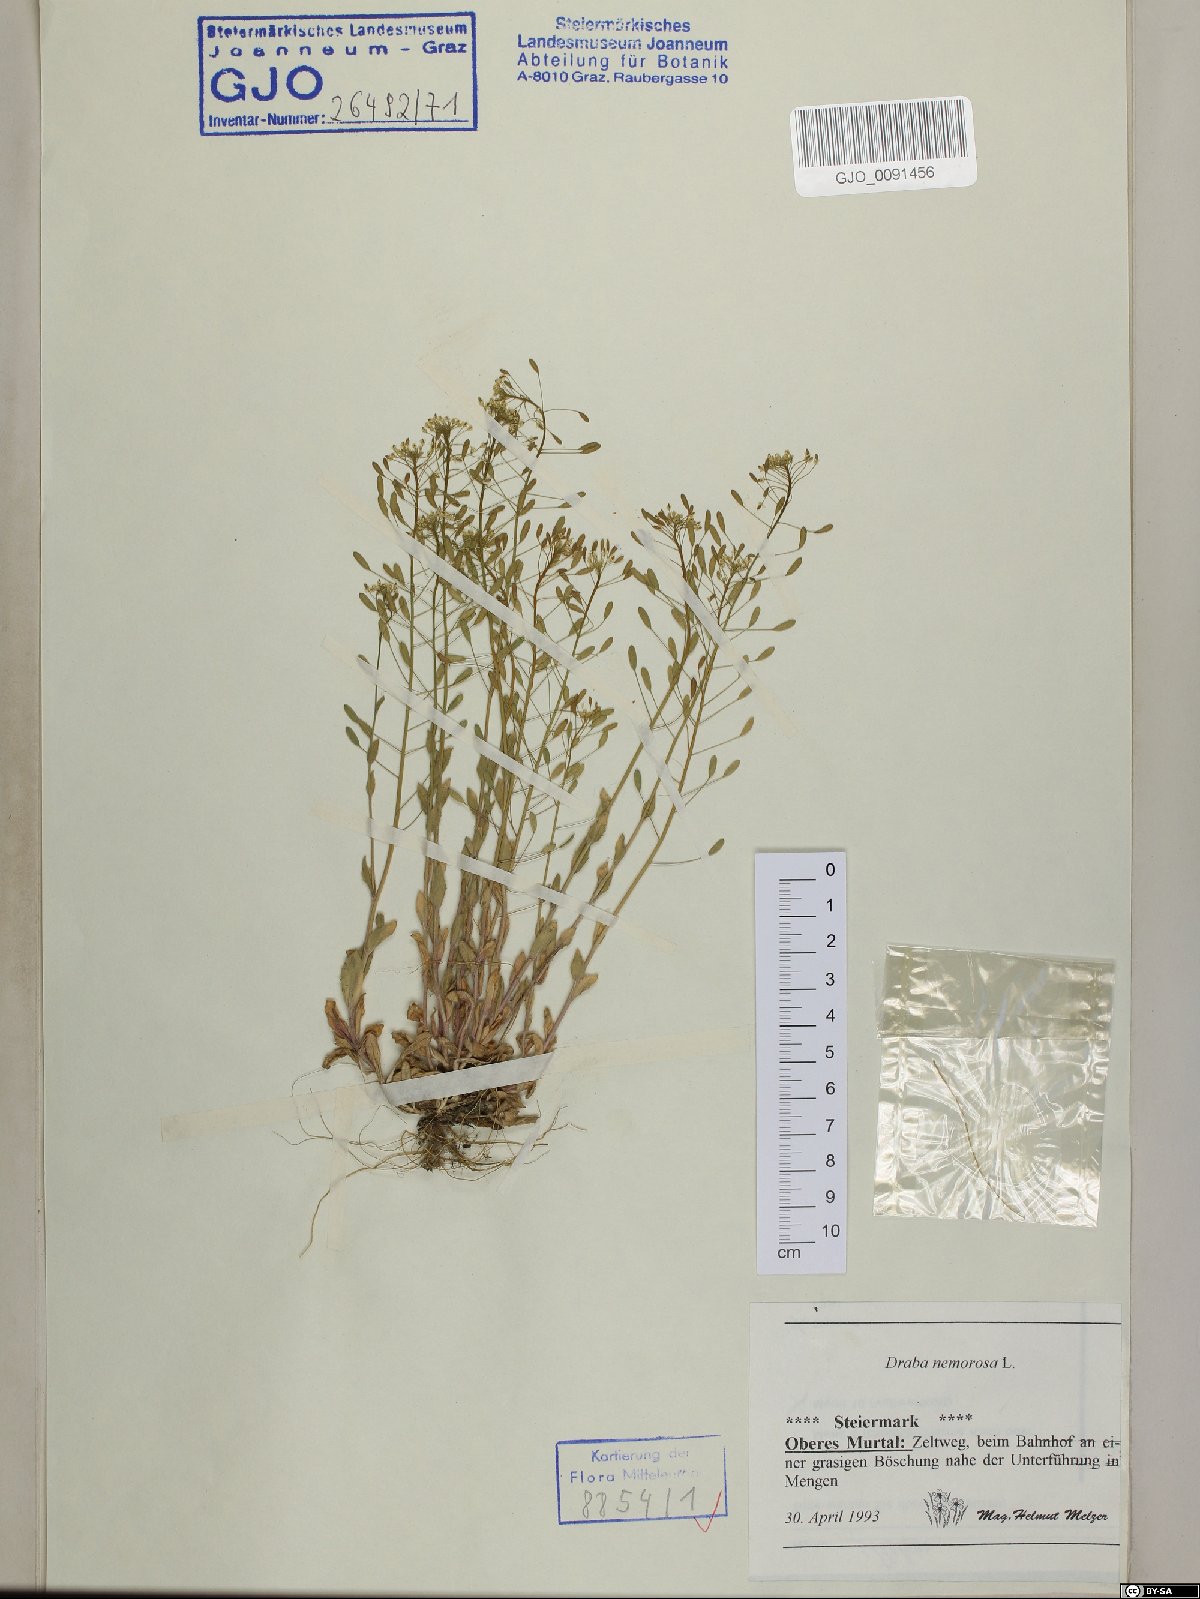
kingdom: Plantae
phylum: Tracheophyta
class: Magnoliopsida
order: Brassicales
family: Brassicaceae
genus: Draba
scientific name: Draba nemorosa
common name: Wood whitlow-grass
